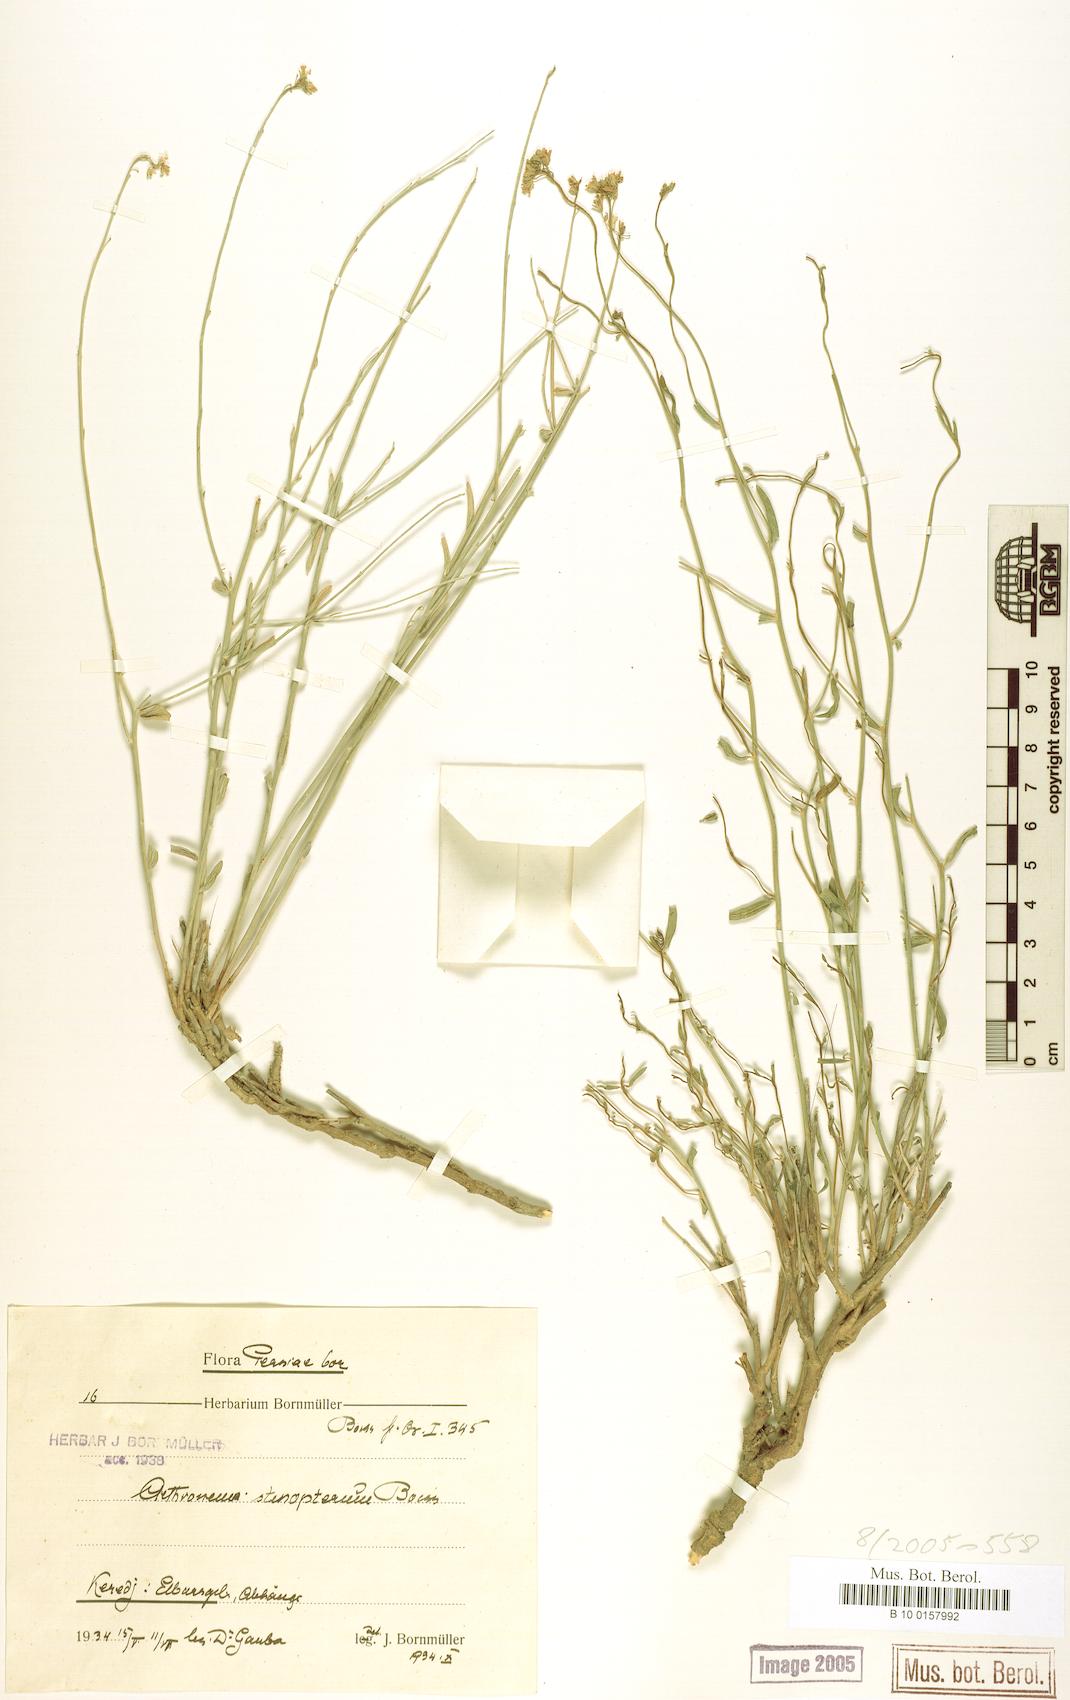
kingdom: Plantae
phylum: Tracheophyta
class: Magnoliopsida
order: Brassicales
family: Brassicaceae
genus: Aethionema
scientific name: Aethionema stenopterum
